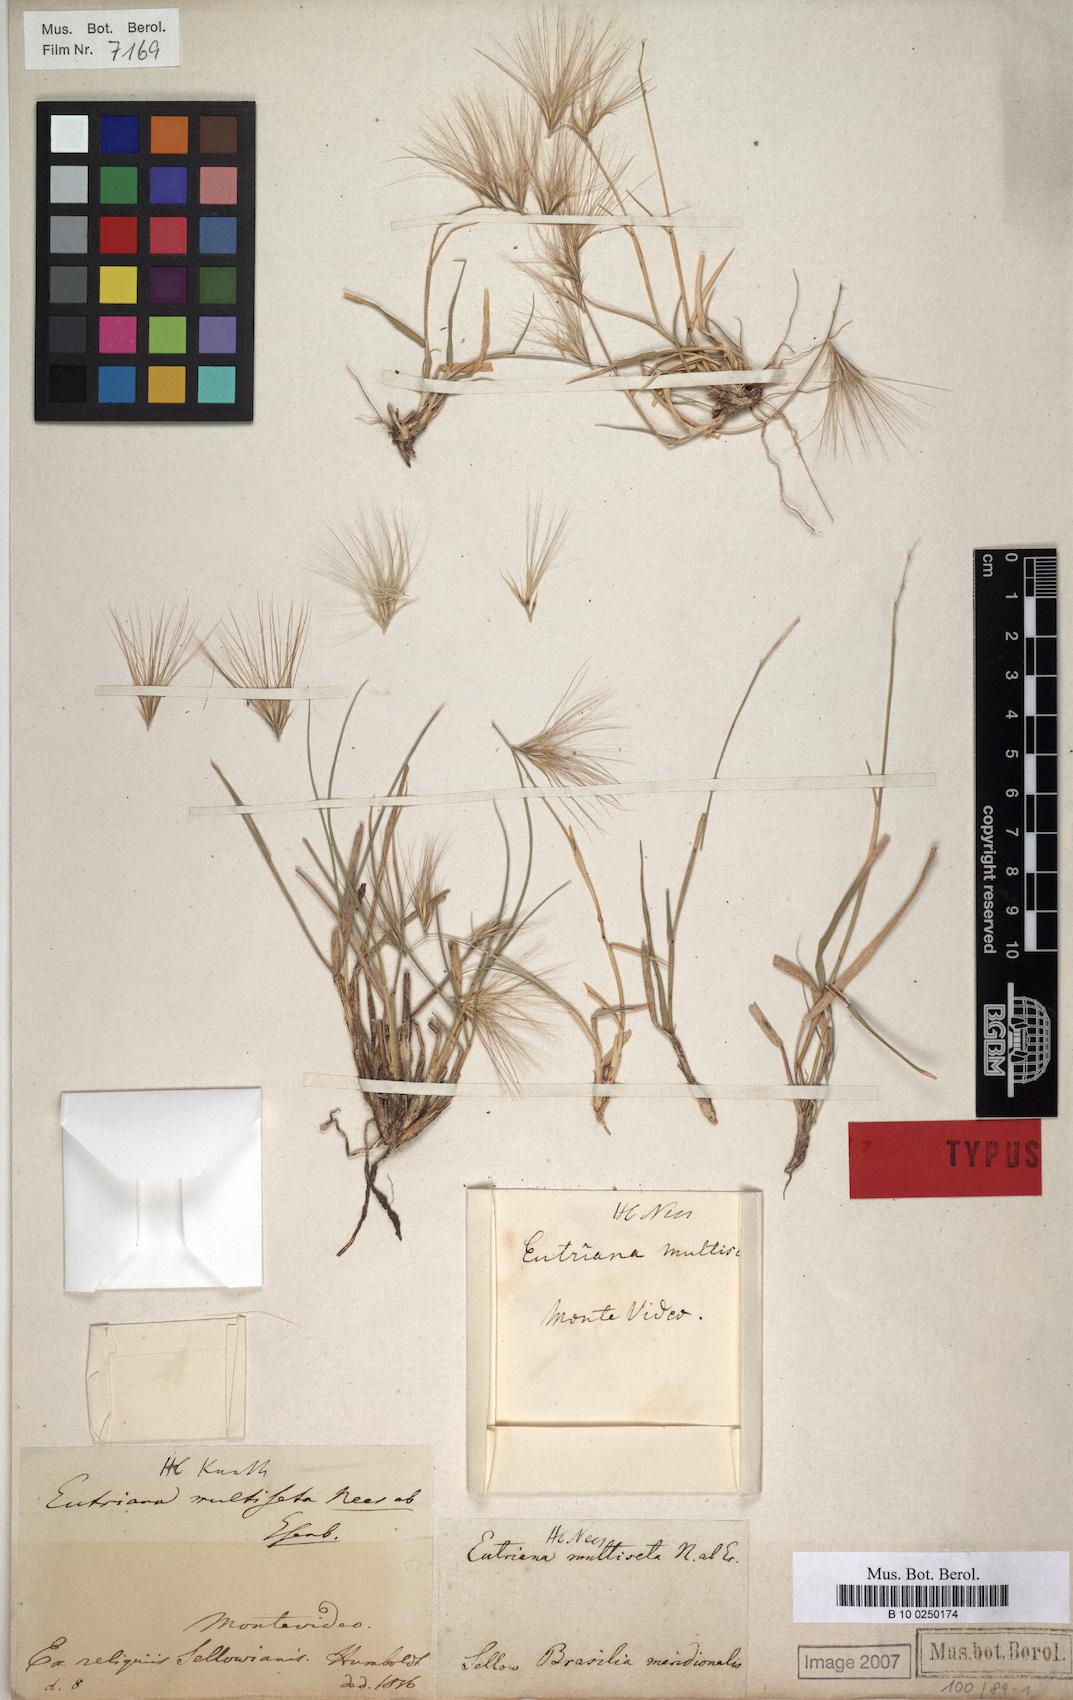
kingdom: Plantae
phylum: Tracheophyta
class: Liliopsida
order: Poales
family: Poaceae
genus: Bouteloua
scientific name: Bouteloua megapotamica
